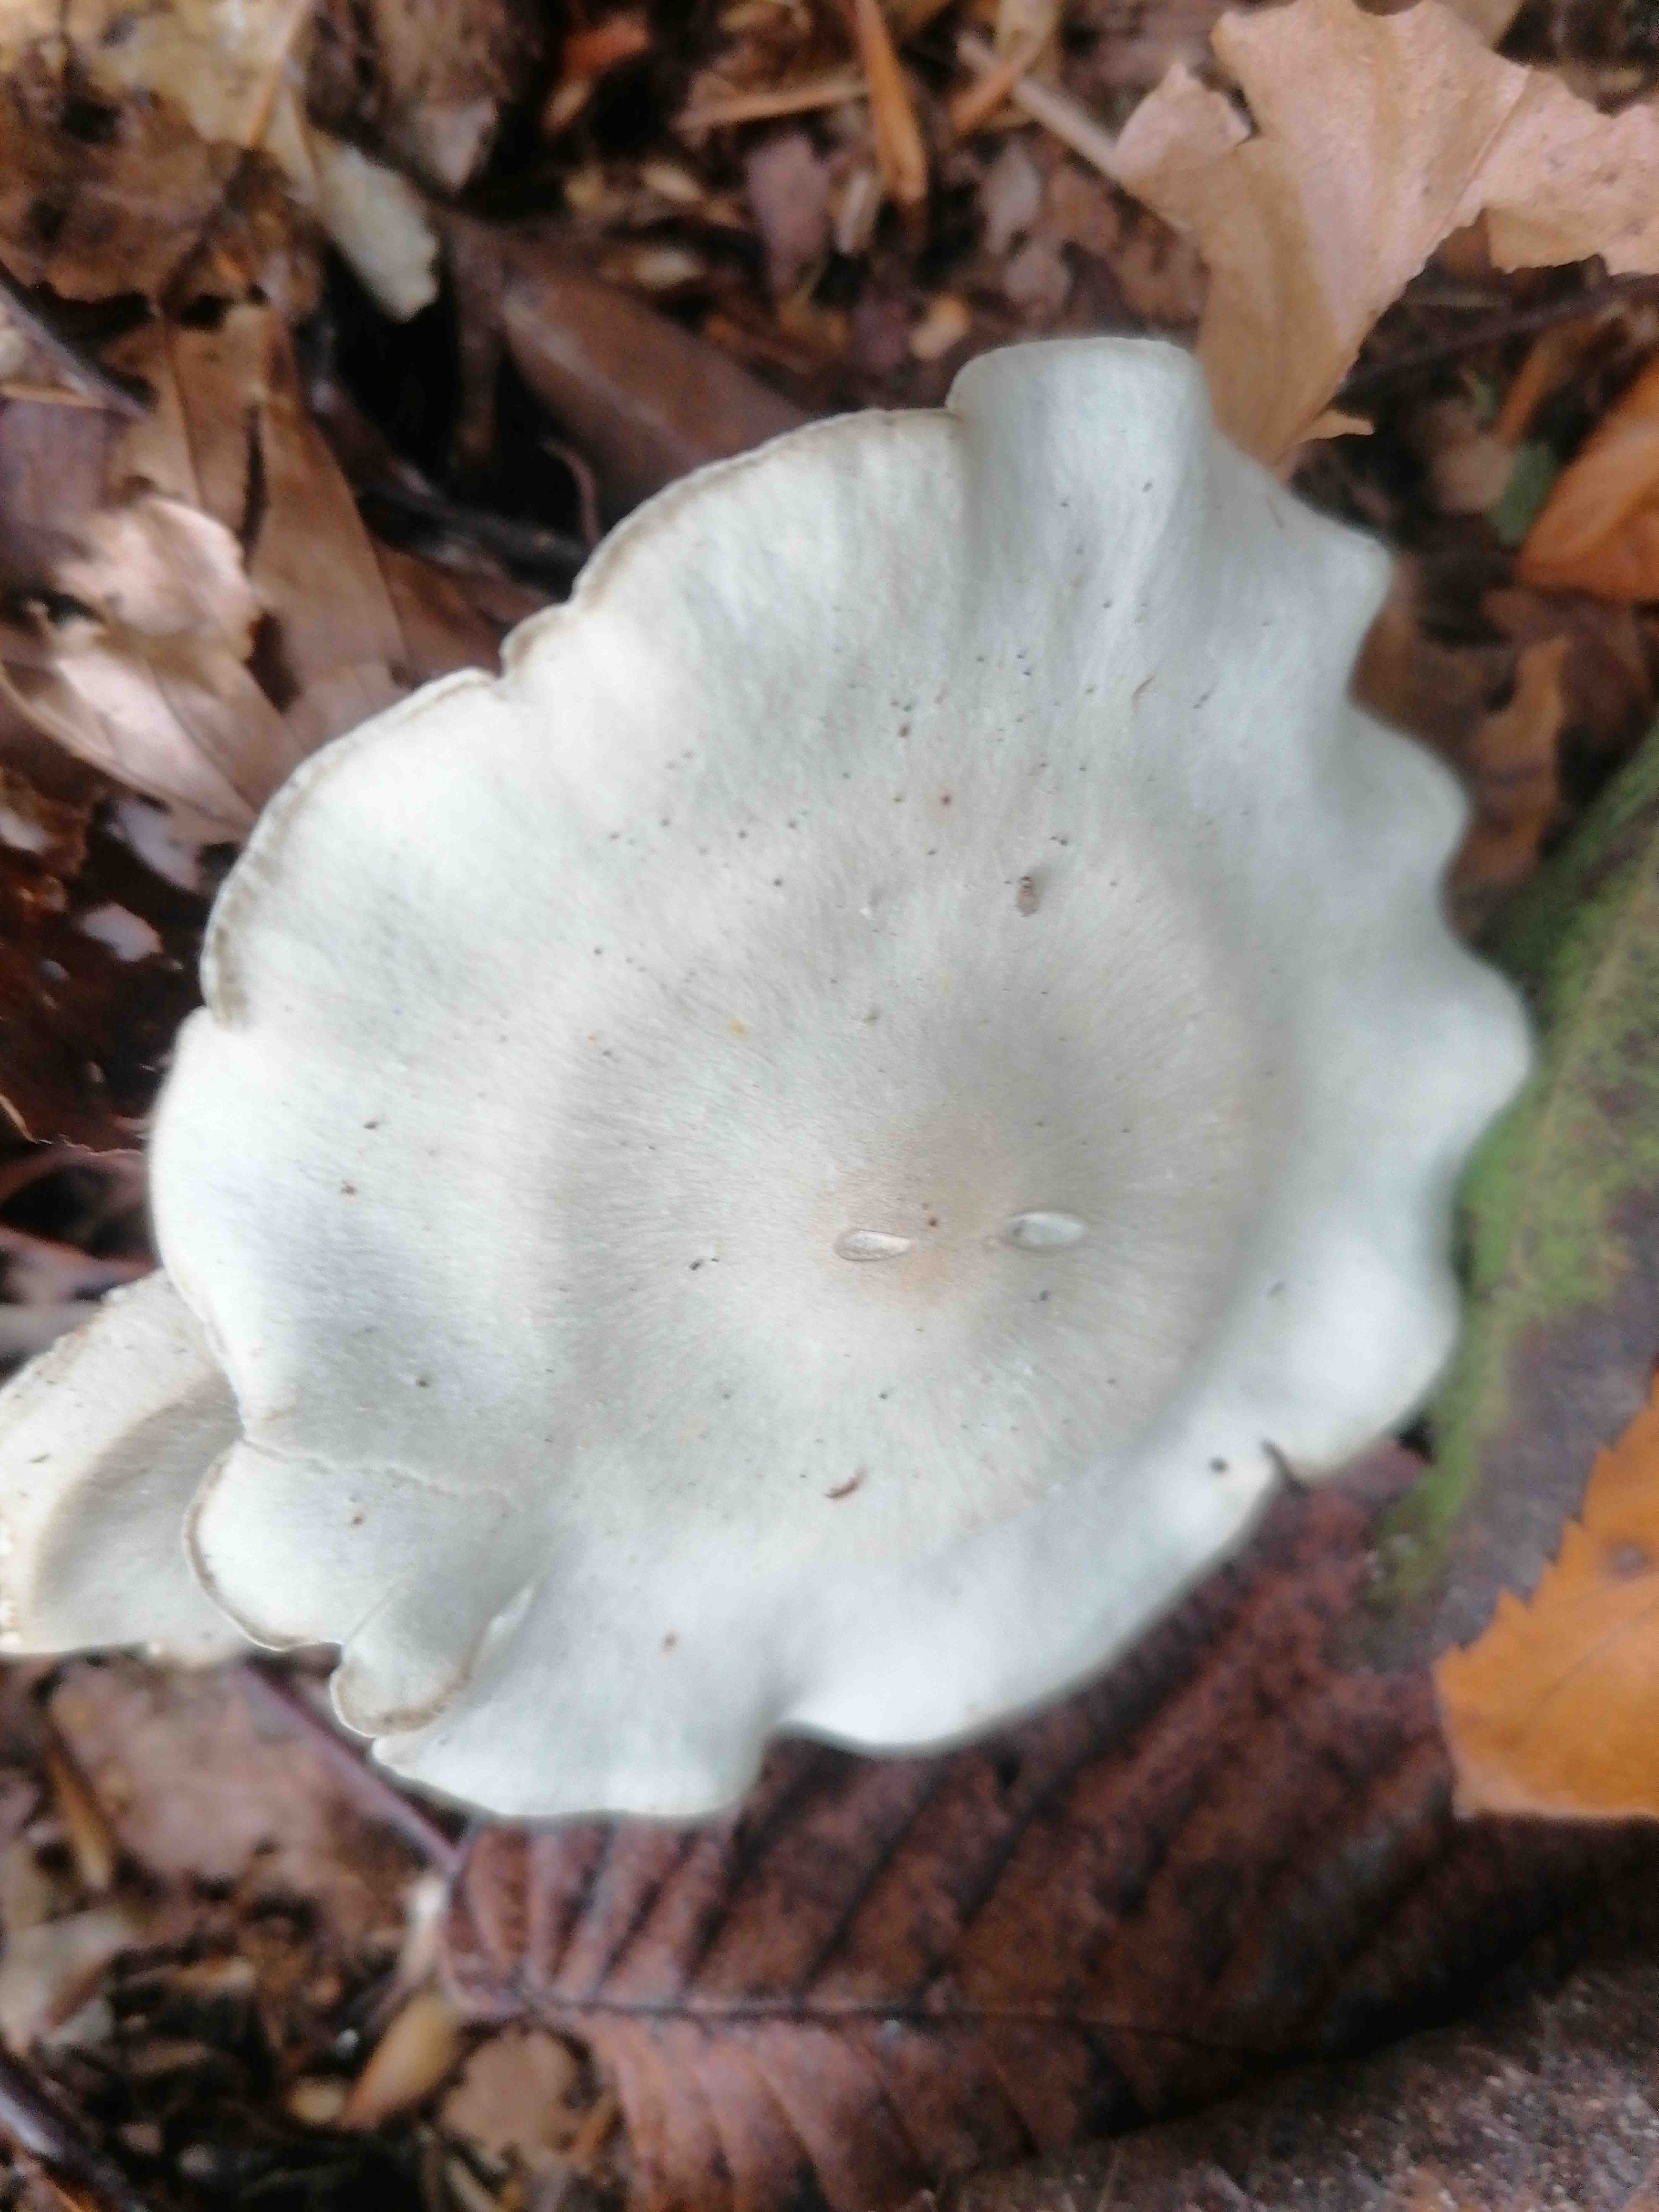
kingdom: Fungi
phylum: Basidiomycota
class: Agaricomycetes
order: Agaricales
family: Tricholomataceae
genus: Clitocybe
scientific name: Clitocybe odora
